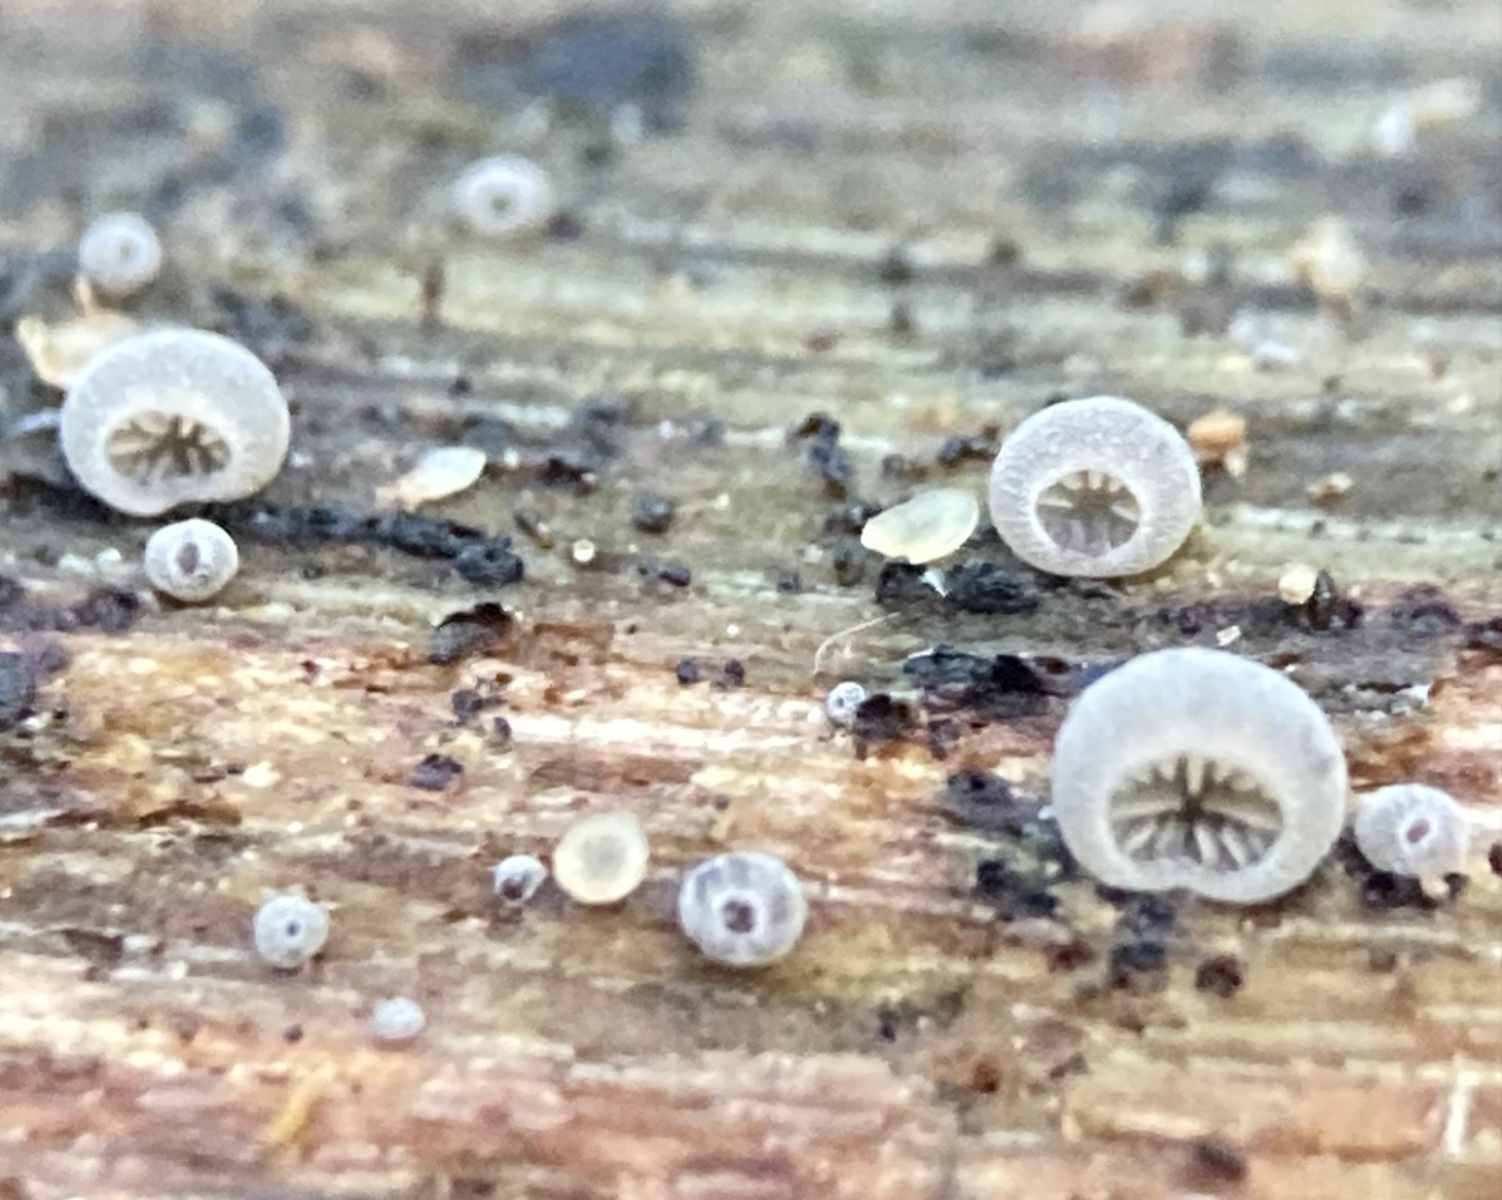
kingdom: Fungi
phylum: Basidiomycota
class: Agaricomycetes
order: Agaricales
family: Pleurotaceae
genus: Resupinatus
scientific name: Resupinatus applicatus
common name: lysfiltet barkhat
